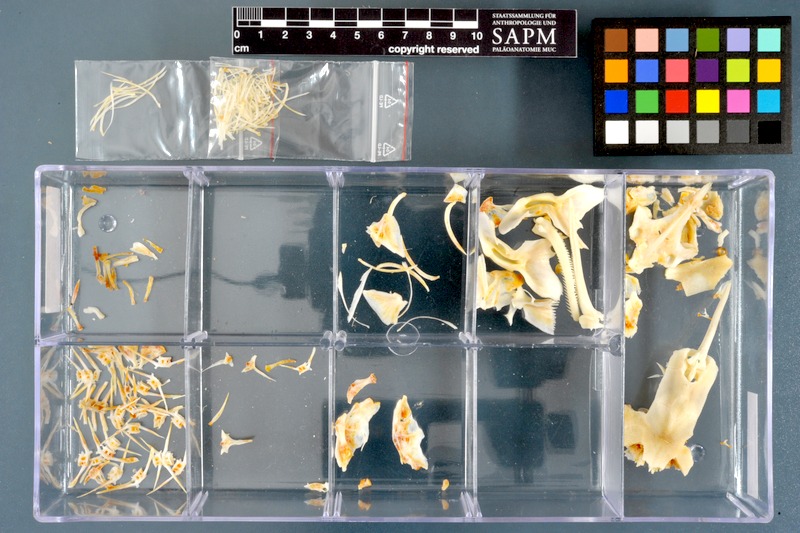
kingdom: Animalia
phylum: Chordata
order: Siluriformes
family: Mochokidae
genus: Synodontis
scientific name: Synodontis notatus
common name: Onespot squeaker
